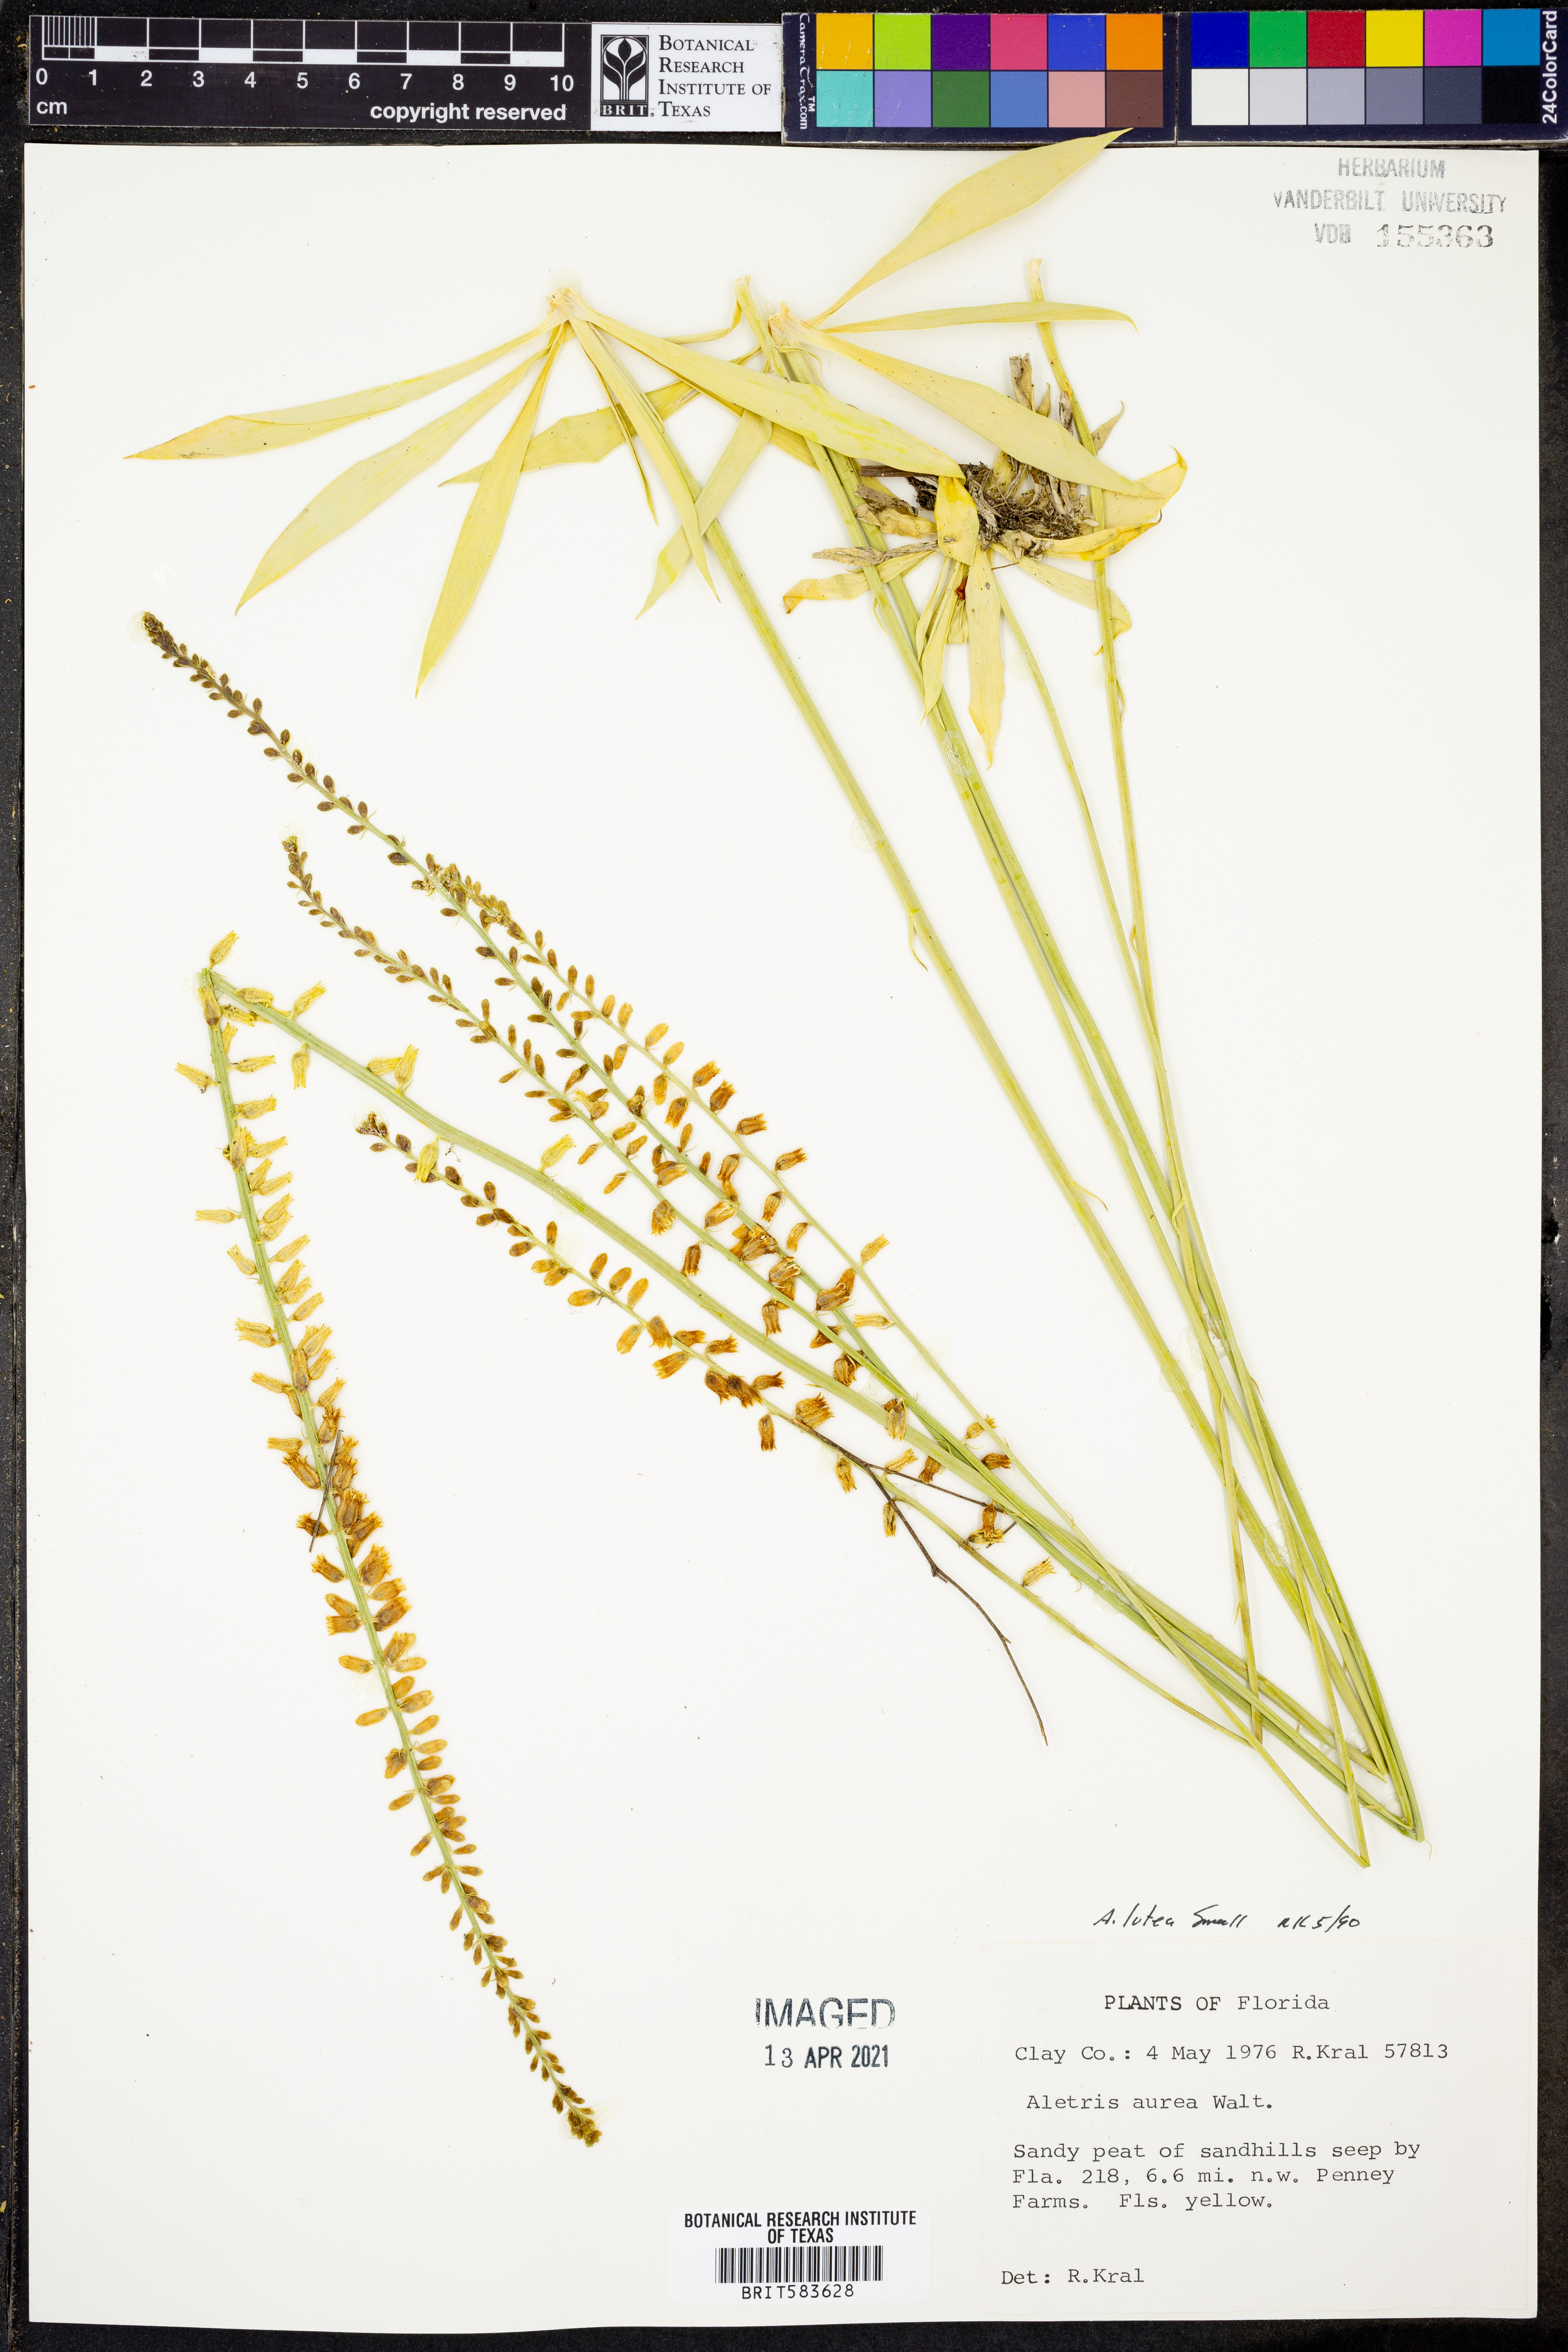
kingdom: Plantae
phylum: Tracheophyta
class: Liliopsida
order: Dioscoreales
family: Nartheciaceae
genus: Aletris
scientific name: Aletris lutea
